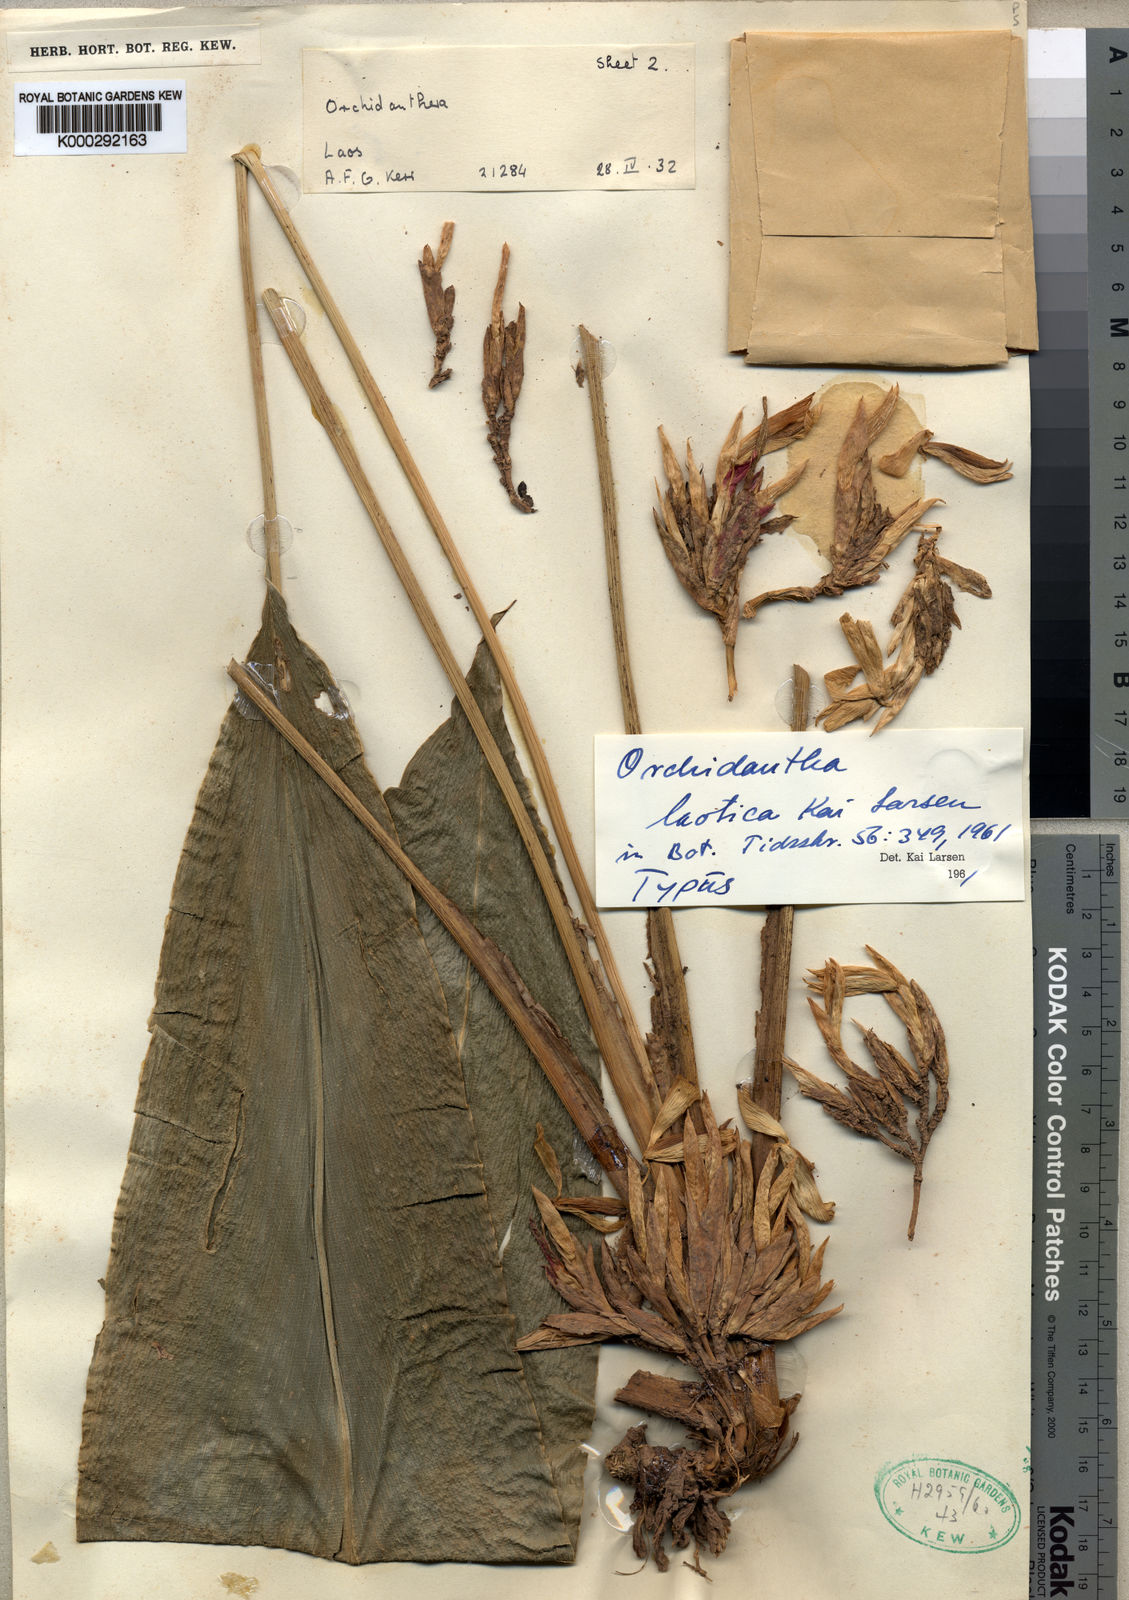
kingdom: Plantae
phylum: Tracheophyta
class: Liliopsida
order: Zingiberales
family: Lowiaceae
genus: Orchidantha
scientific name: Orchidantha laotica
